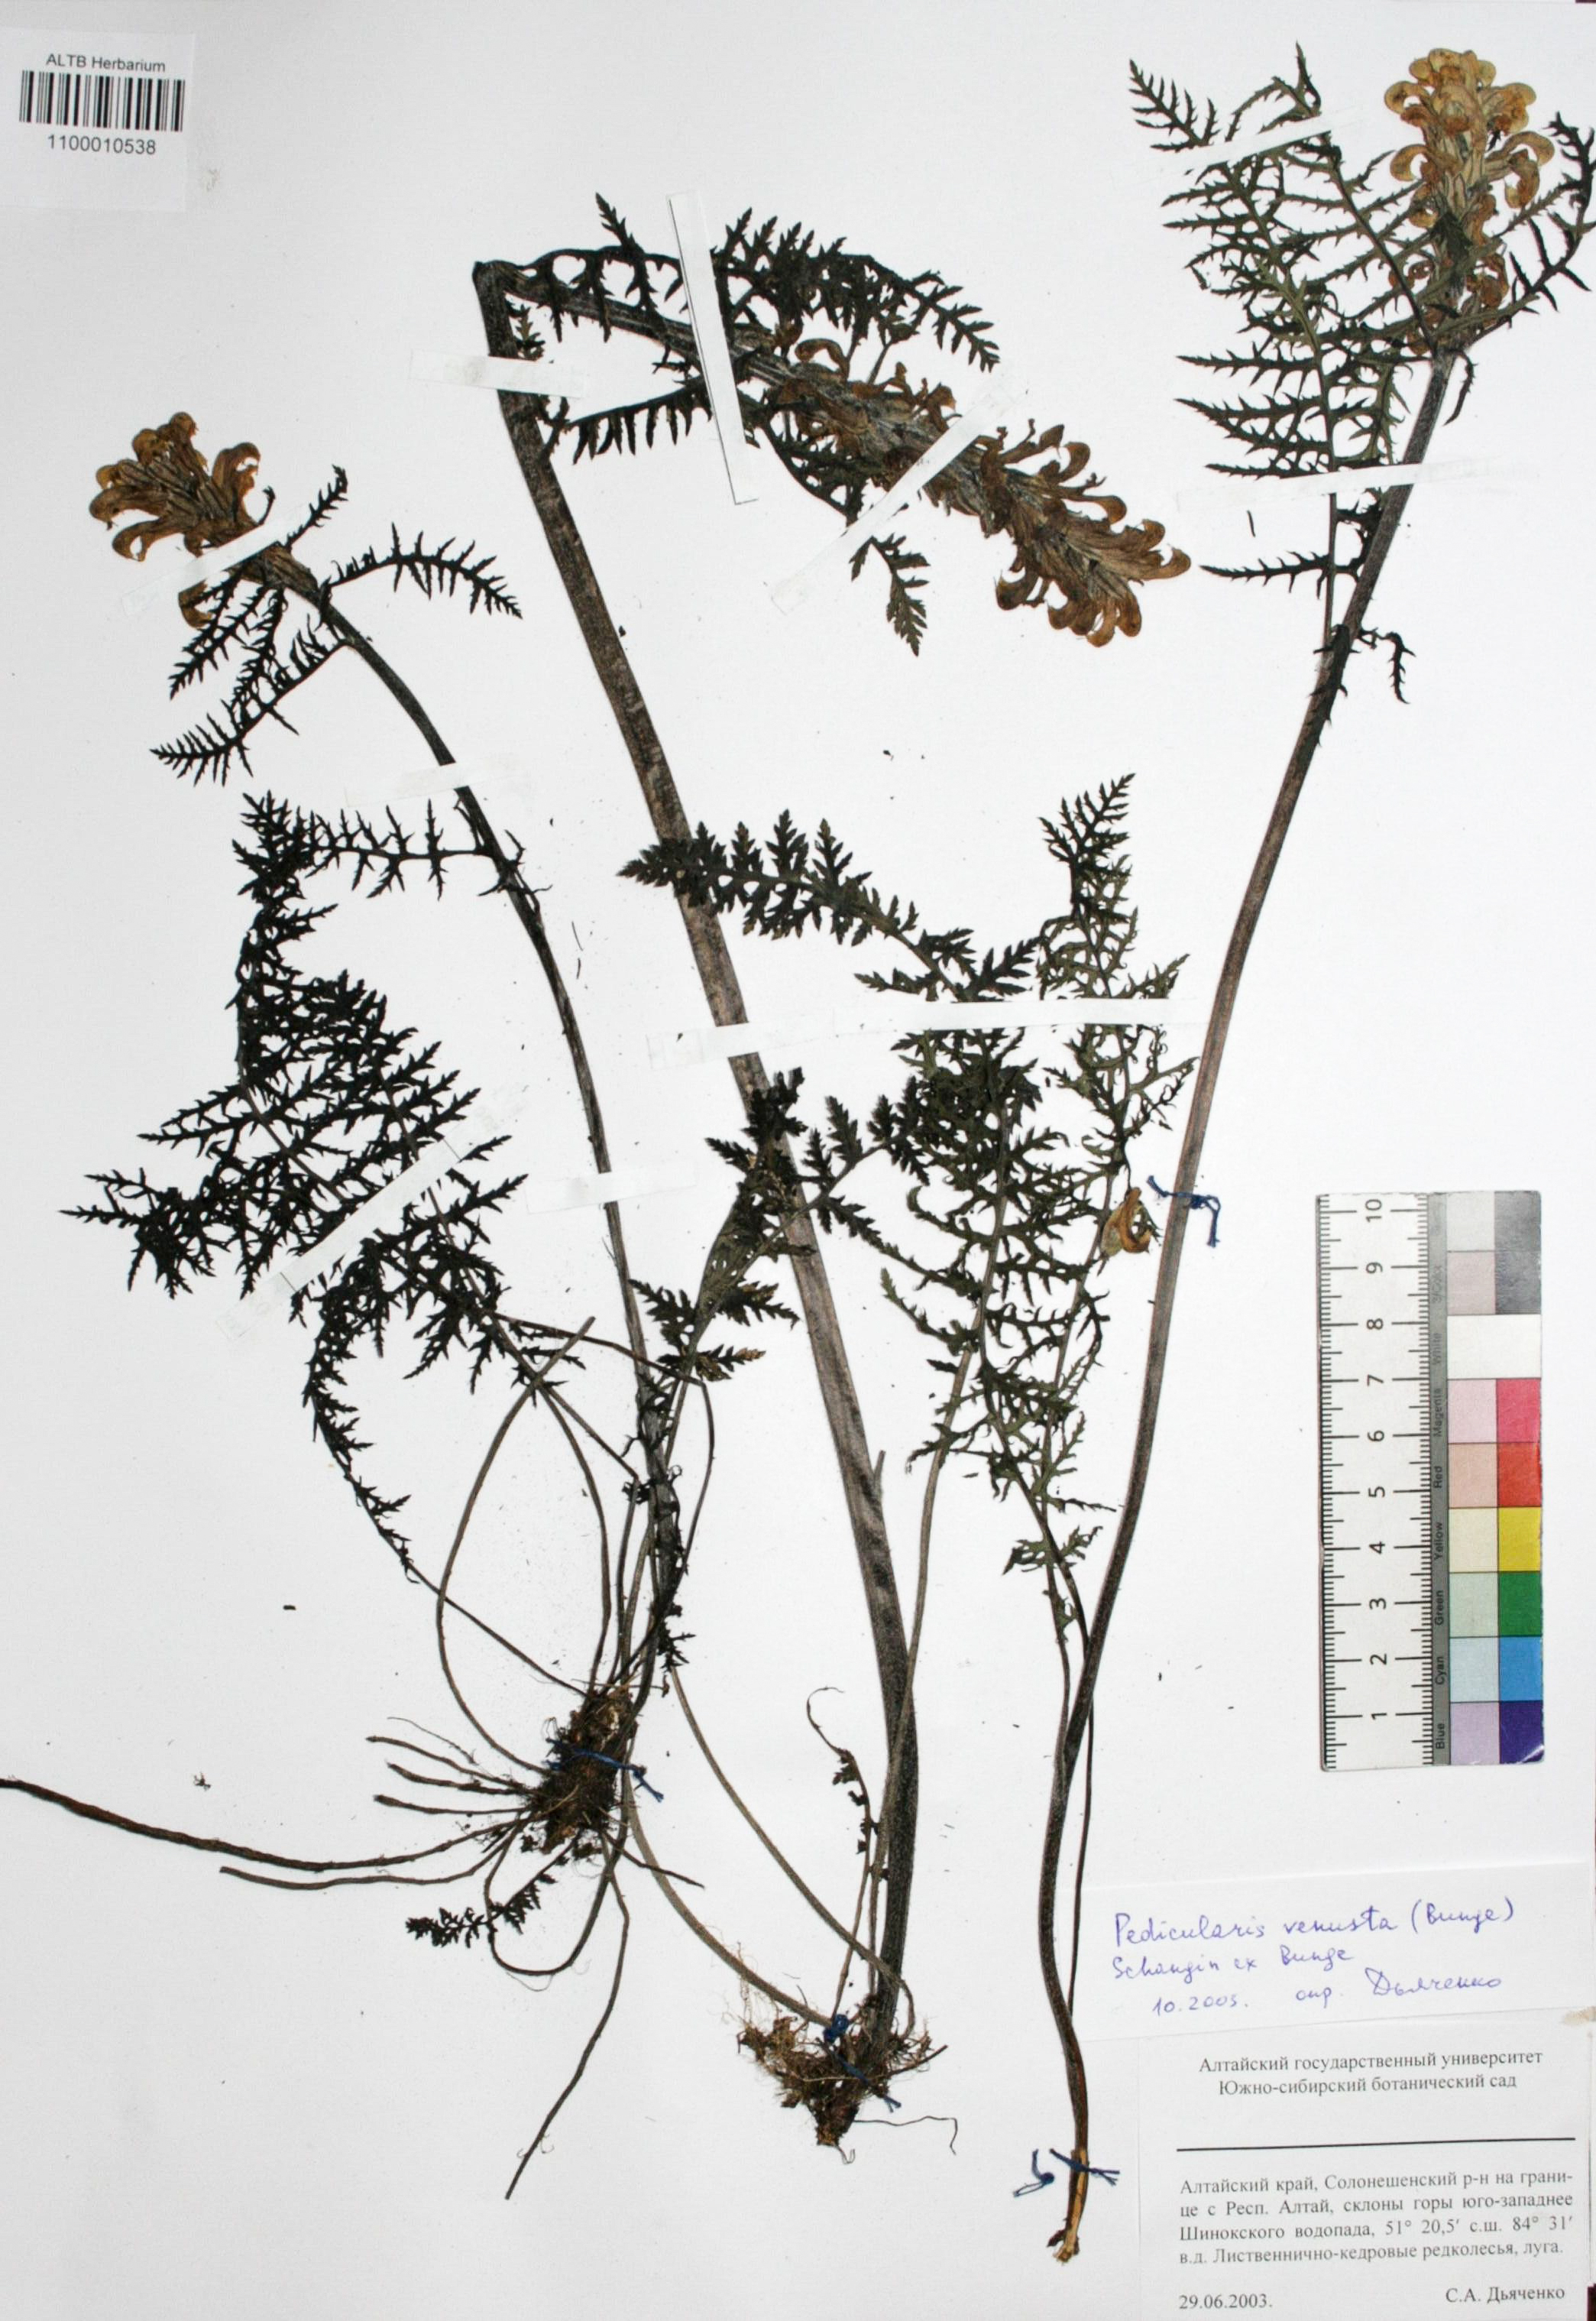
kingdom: Plantae
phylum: Tracheophyta
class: Magnoliopsida
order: Lamiales
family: Orobanchaceae
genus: Pedicularis
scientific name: Pedicularis venusta
